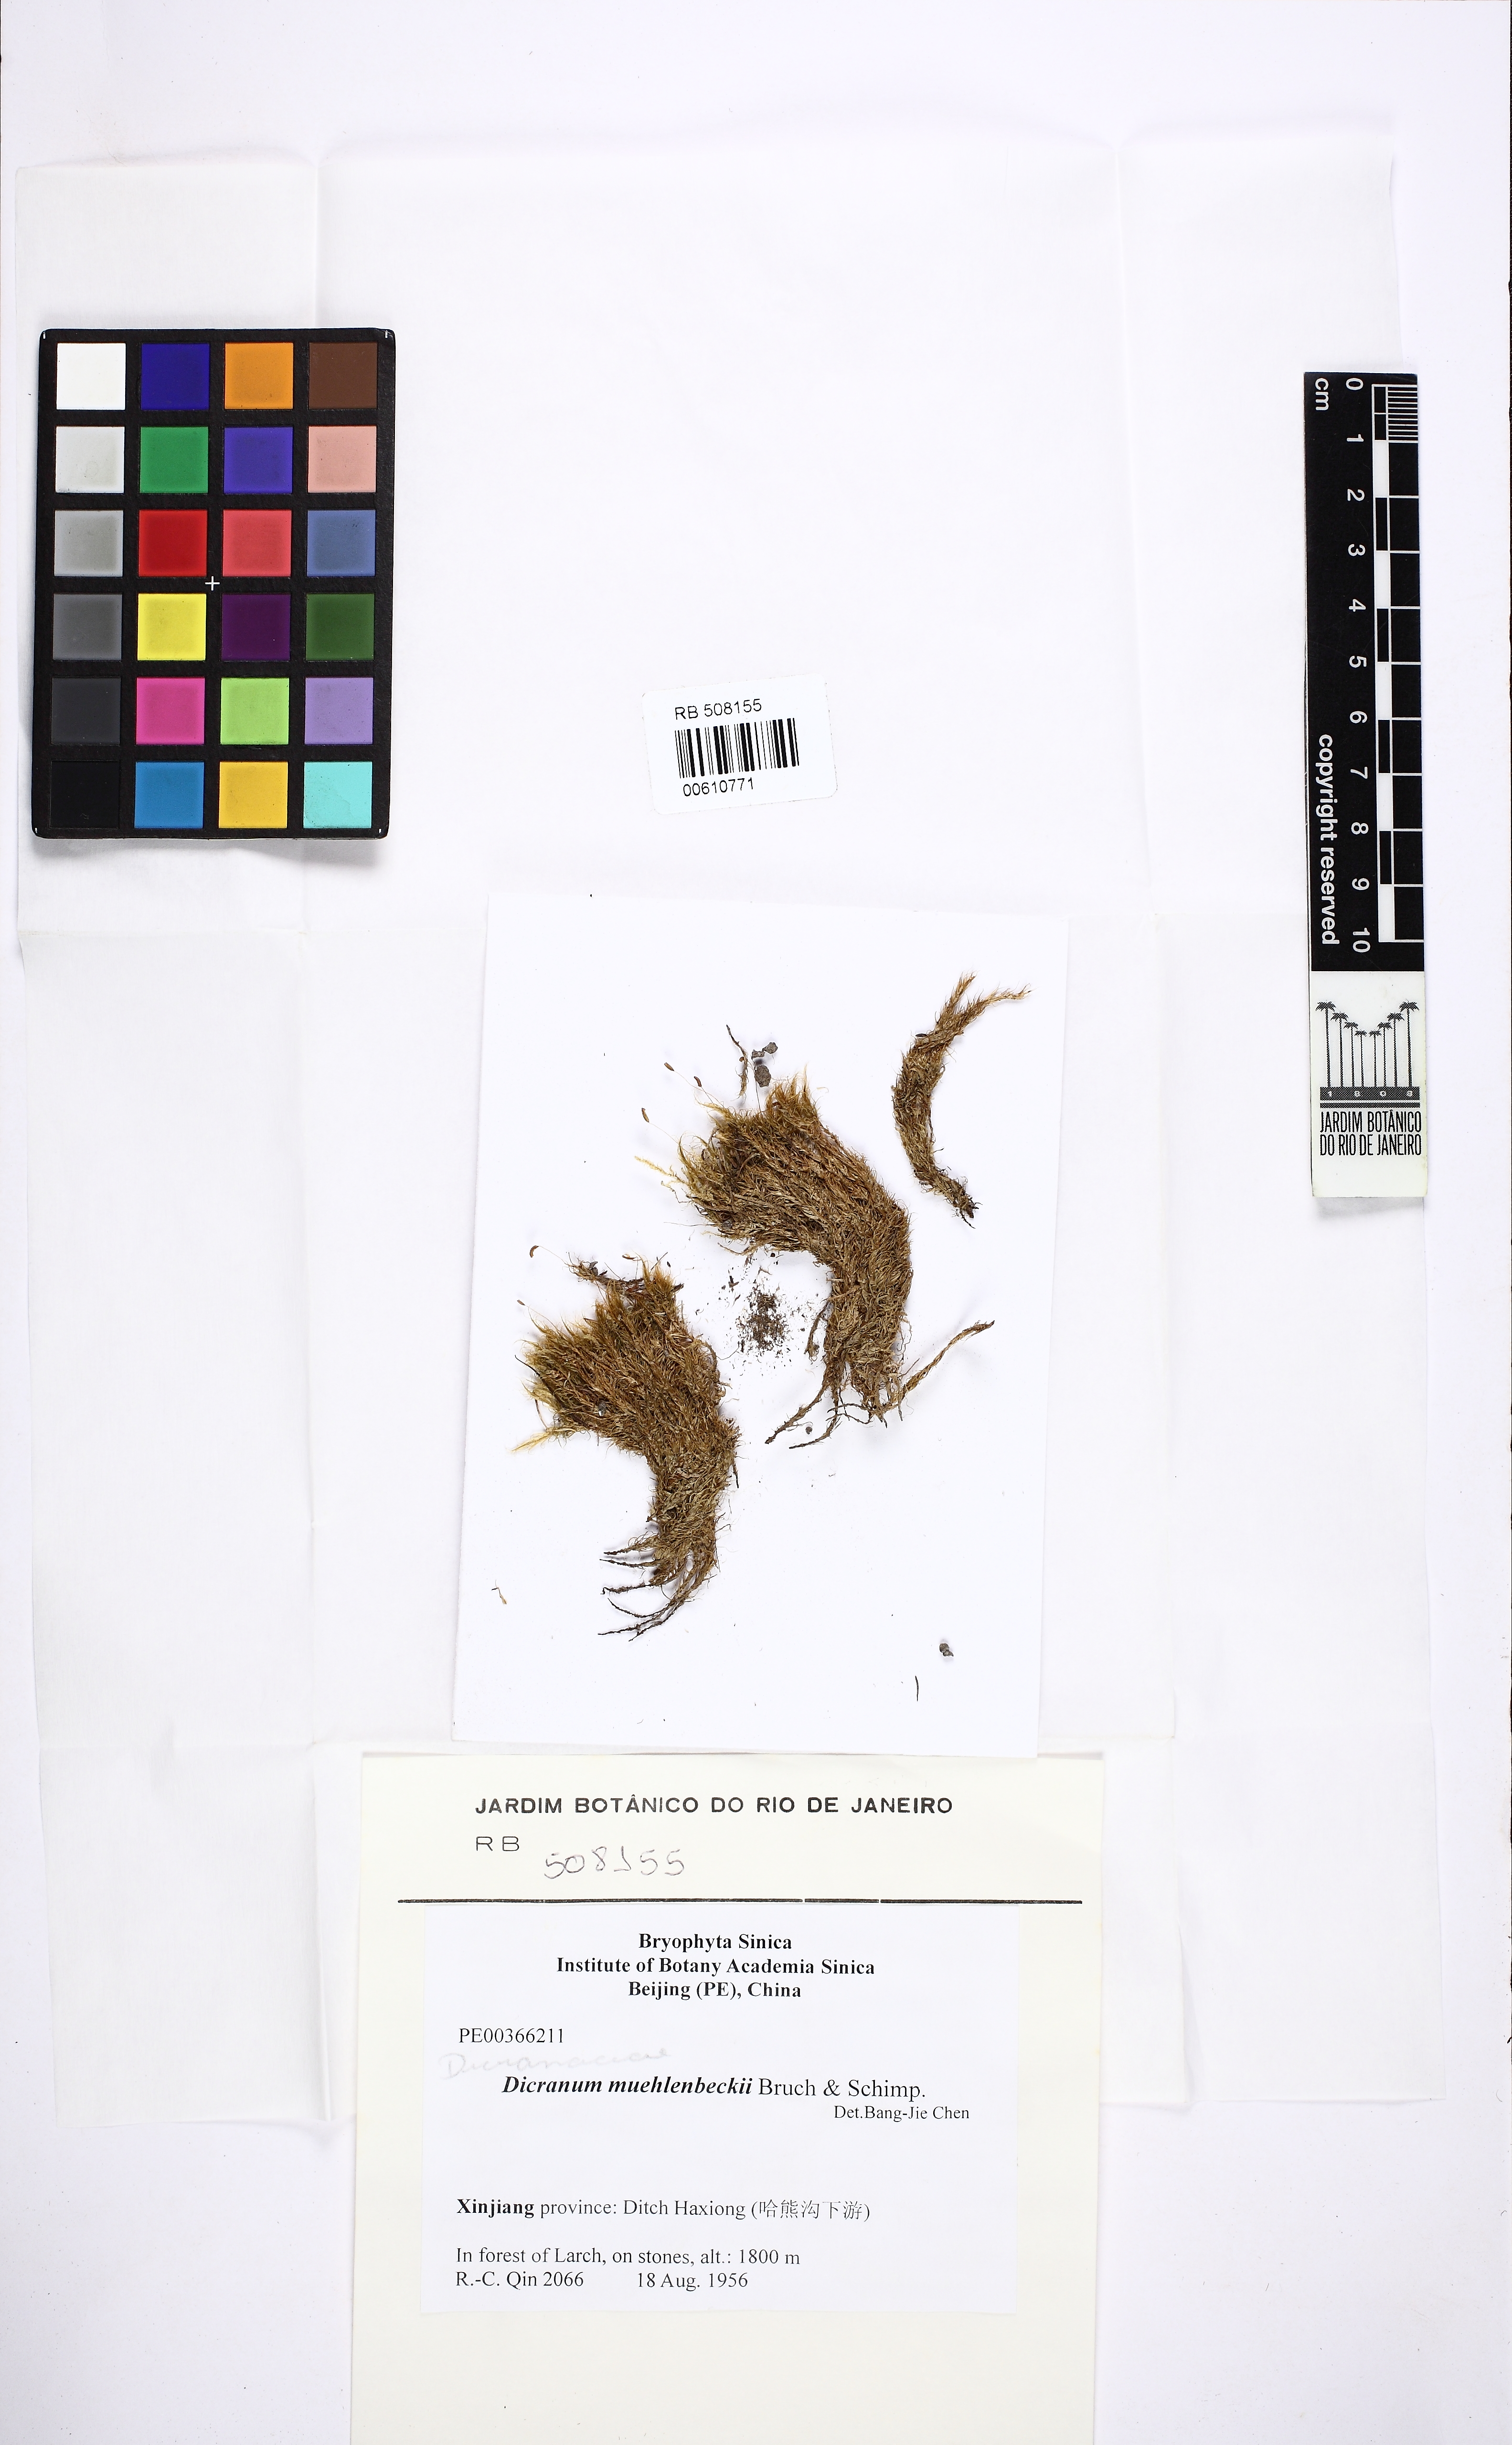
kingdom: Plantae
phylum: Bryophyta
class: Bryopsida
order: Dicranales
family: Dicranaceae
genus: Dicranum
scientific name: Dicranum muehlenbeckii
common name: Muehlenbeck's broom moss
